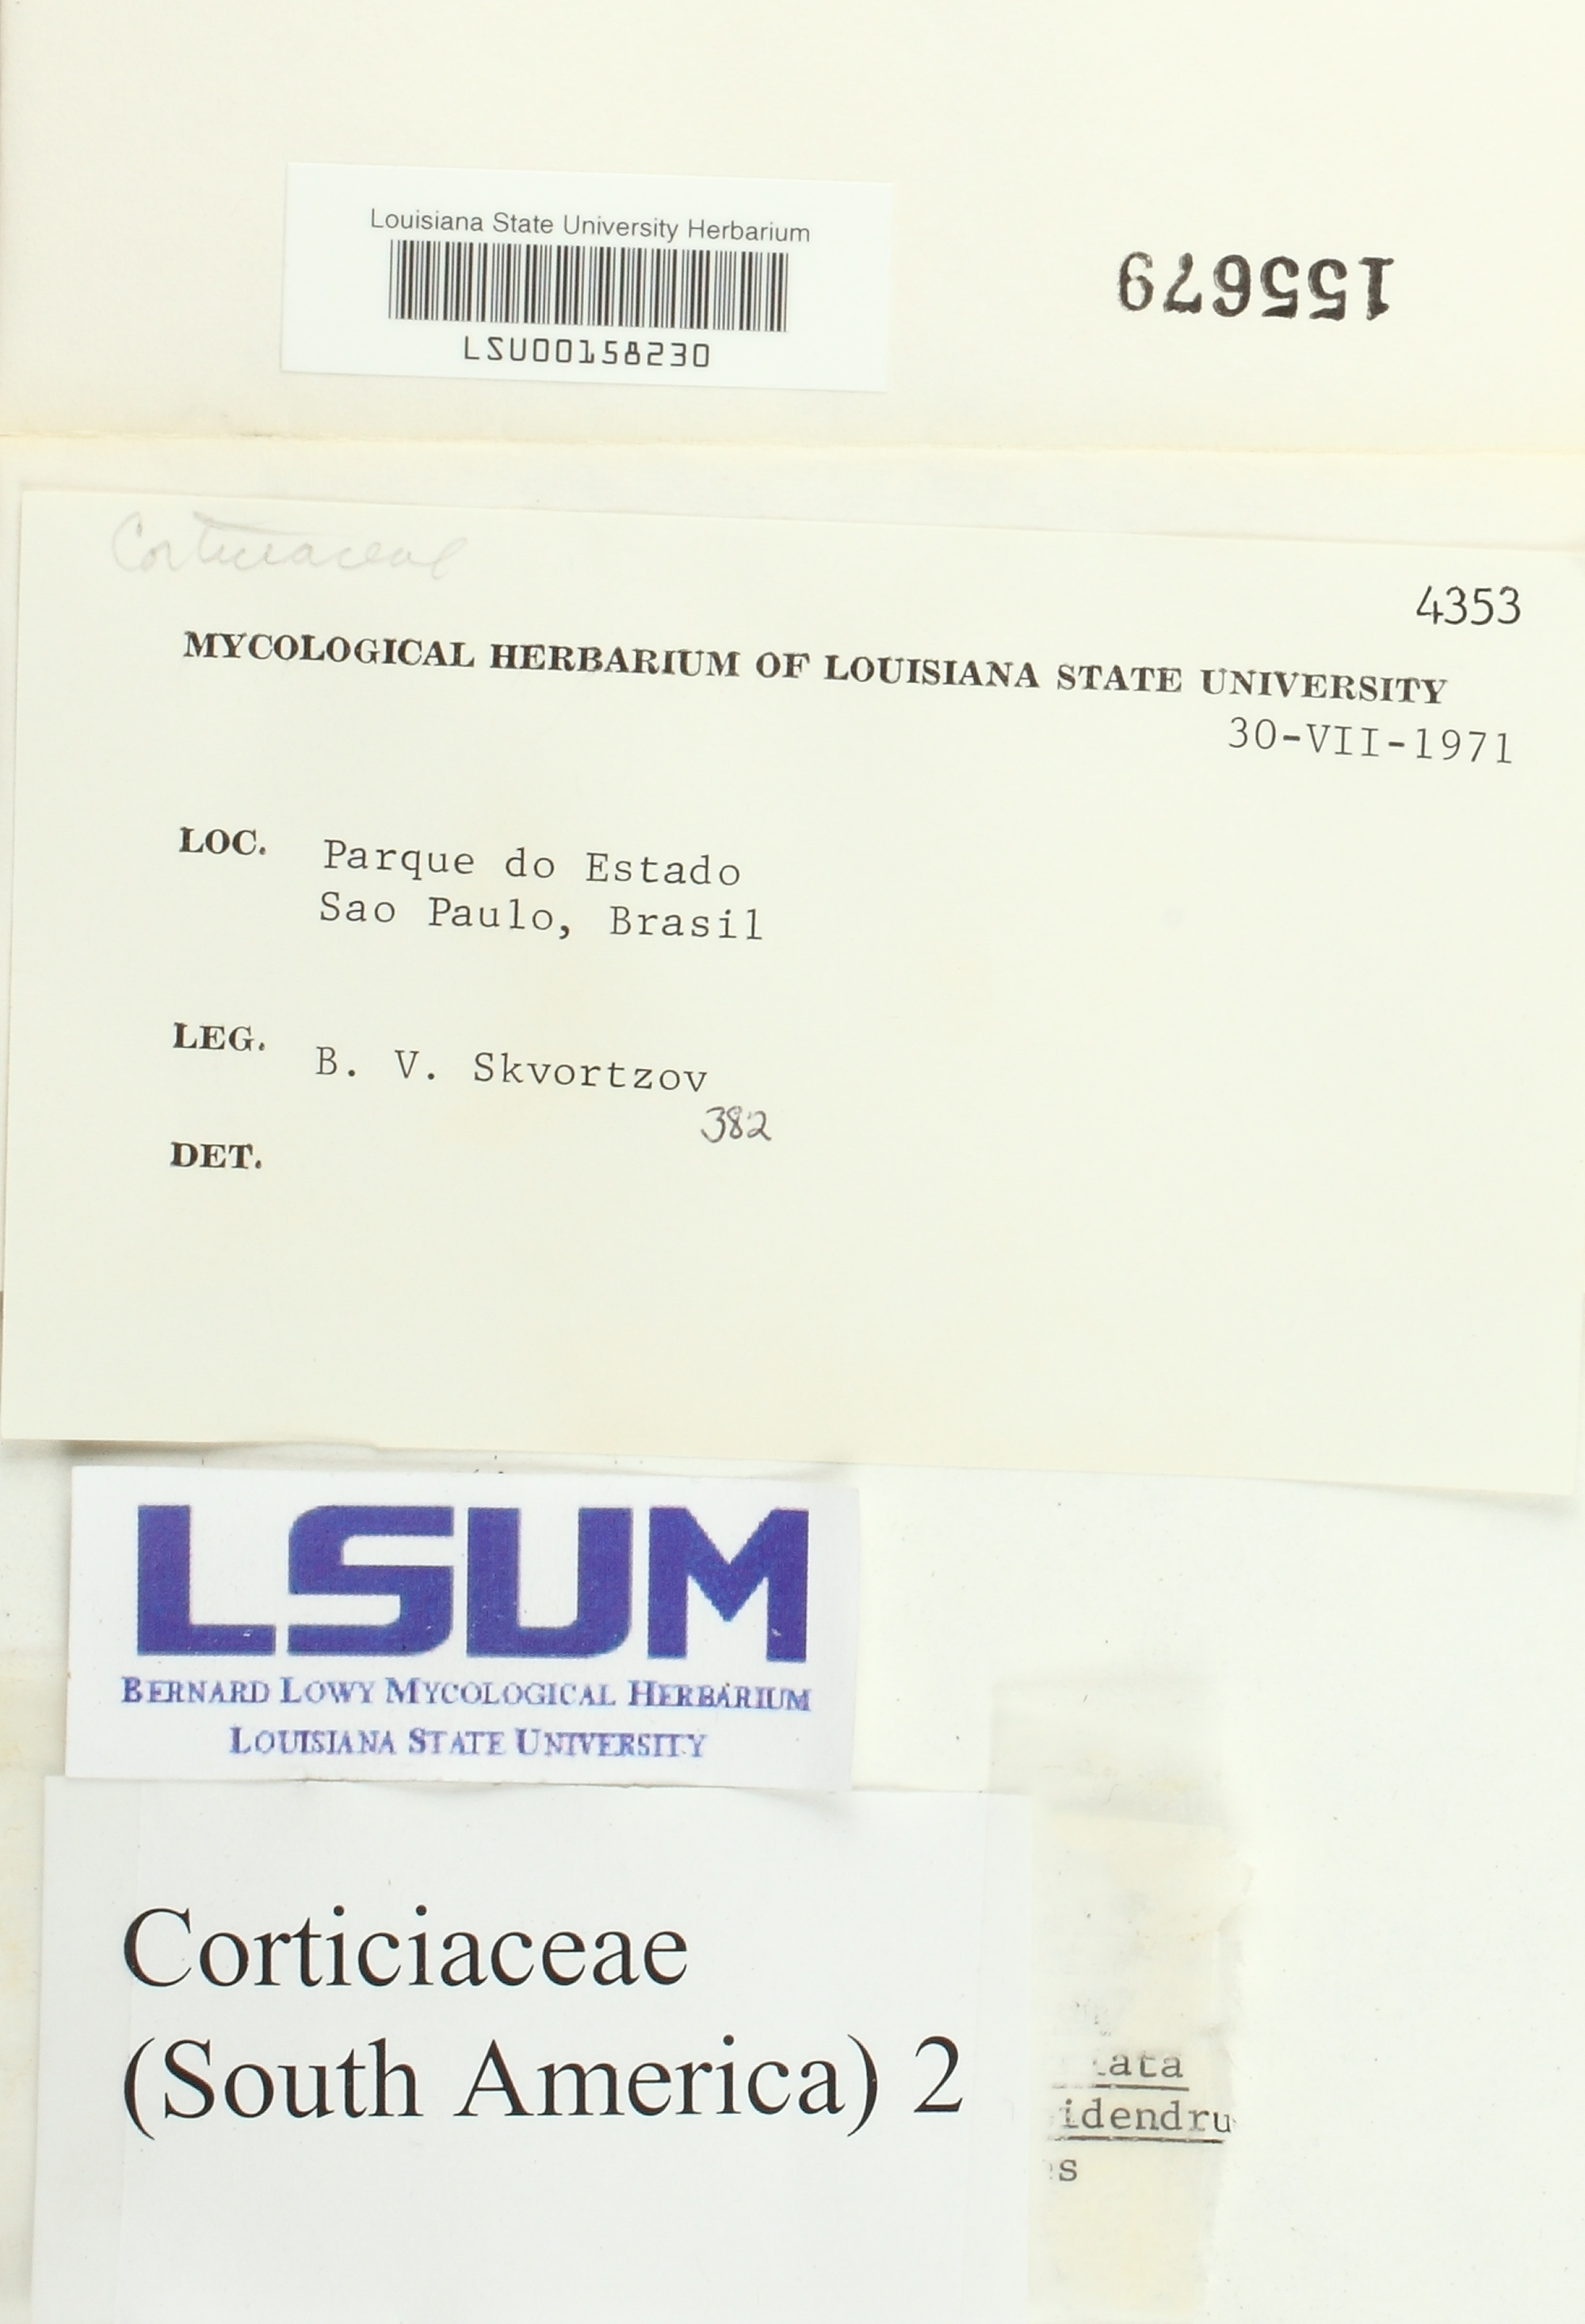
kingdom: Fungi
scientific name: Fungi
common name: Fungi
